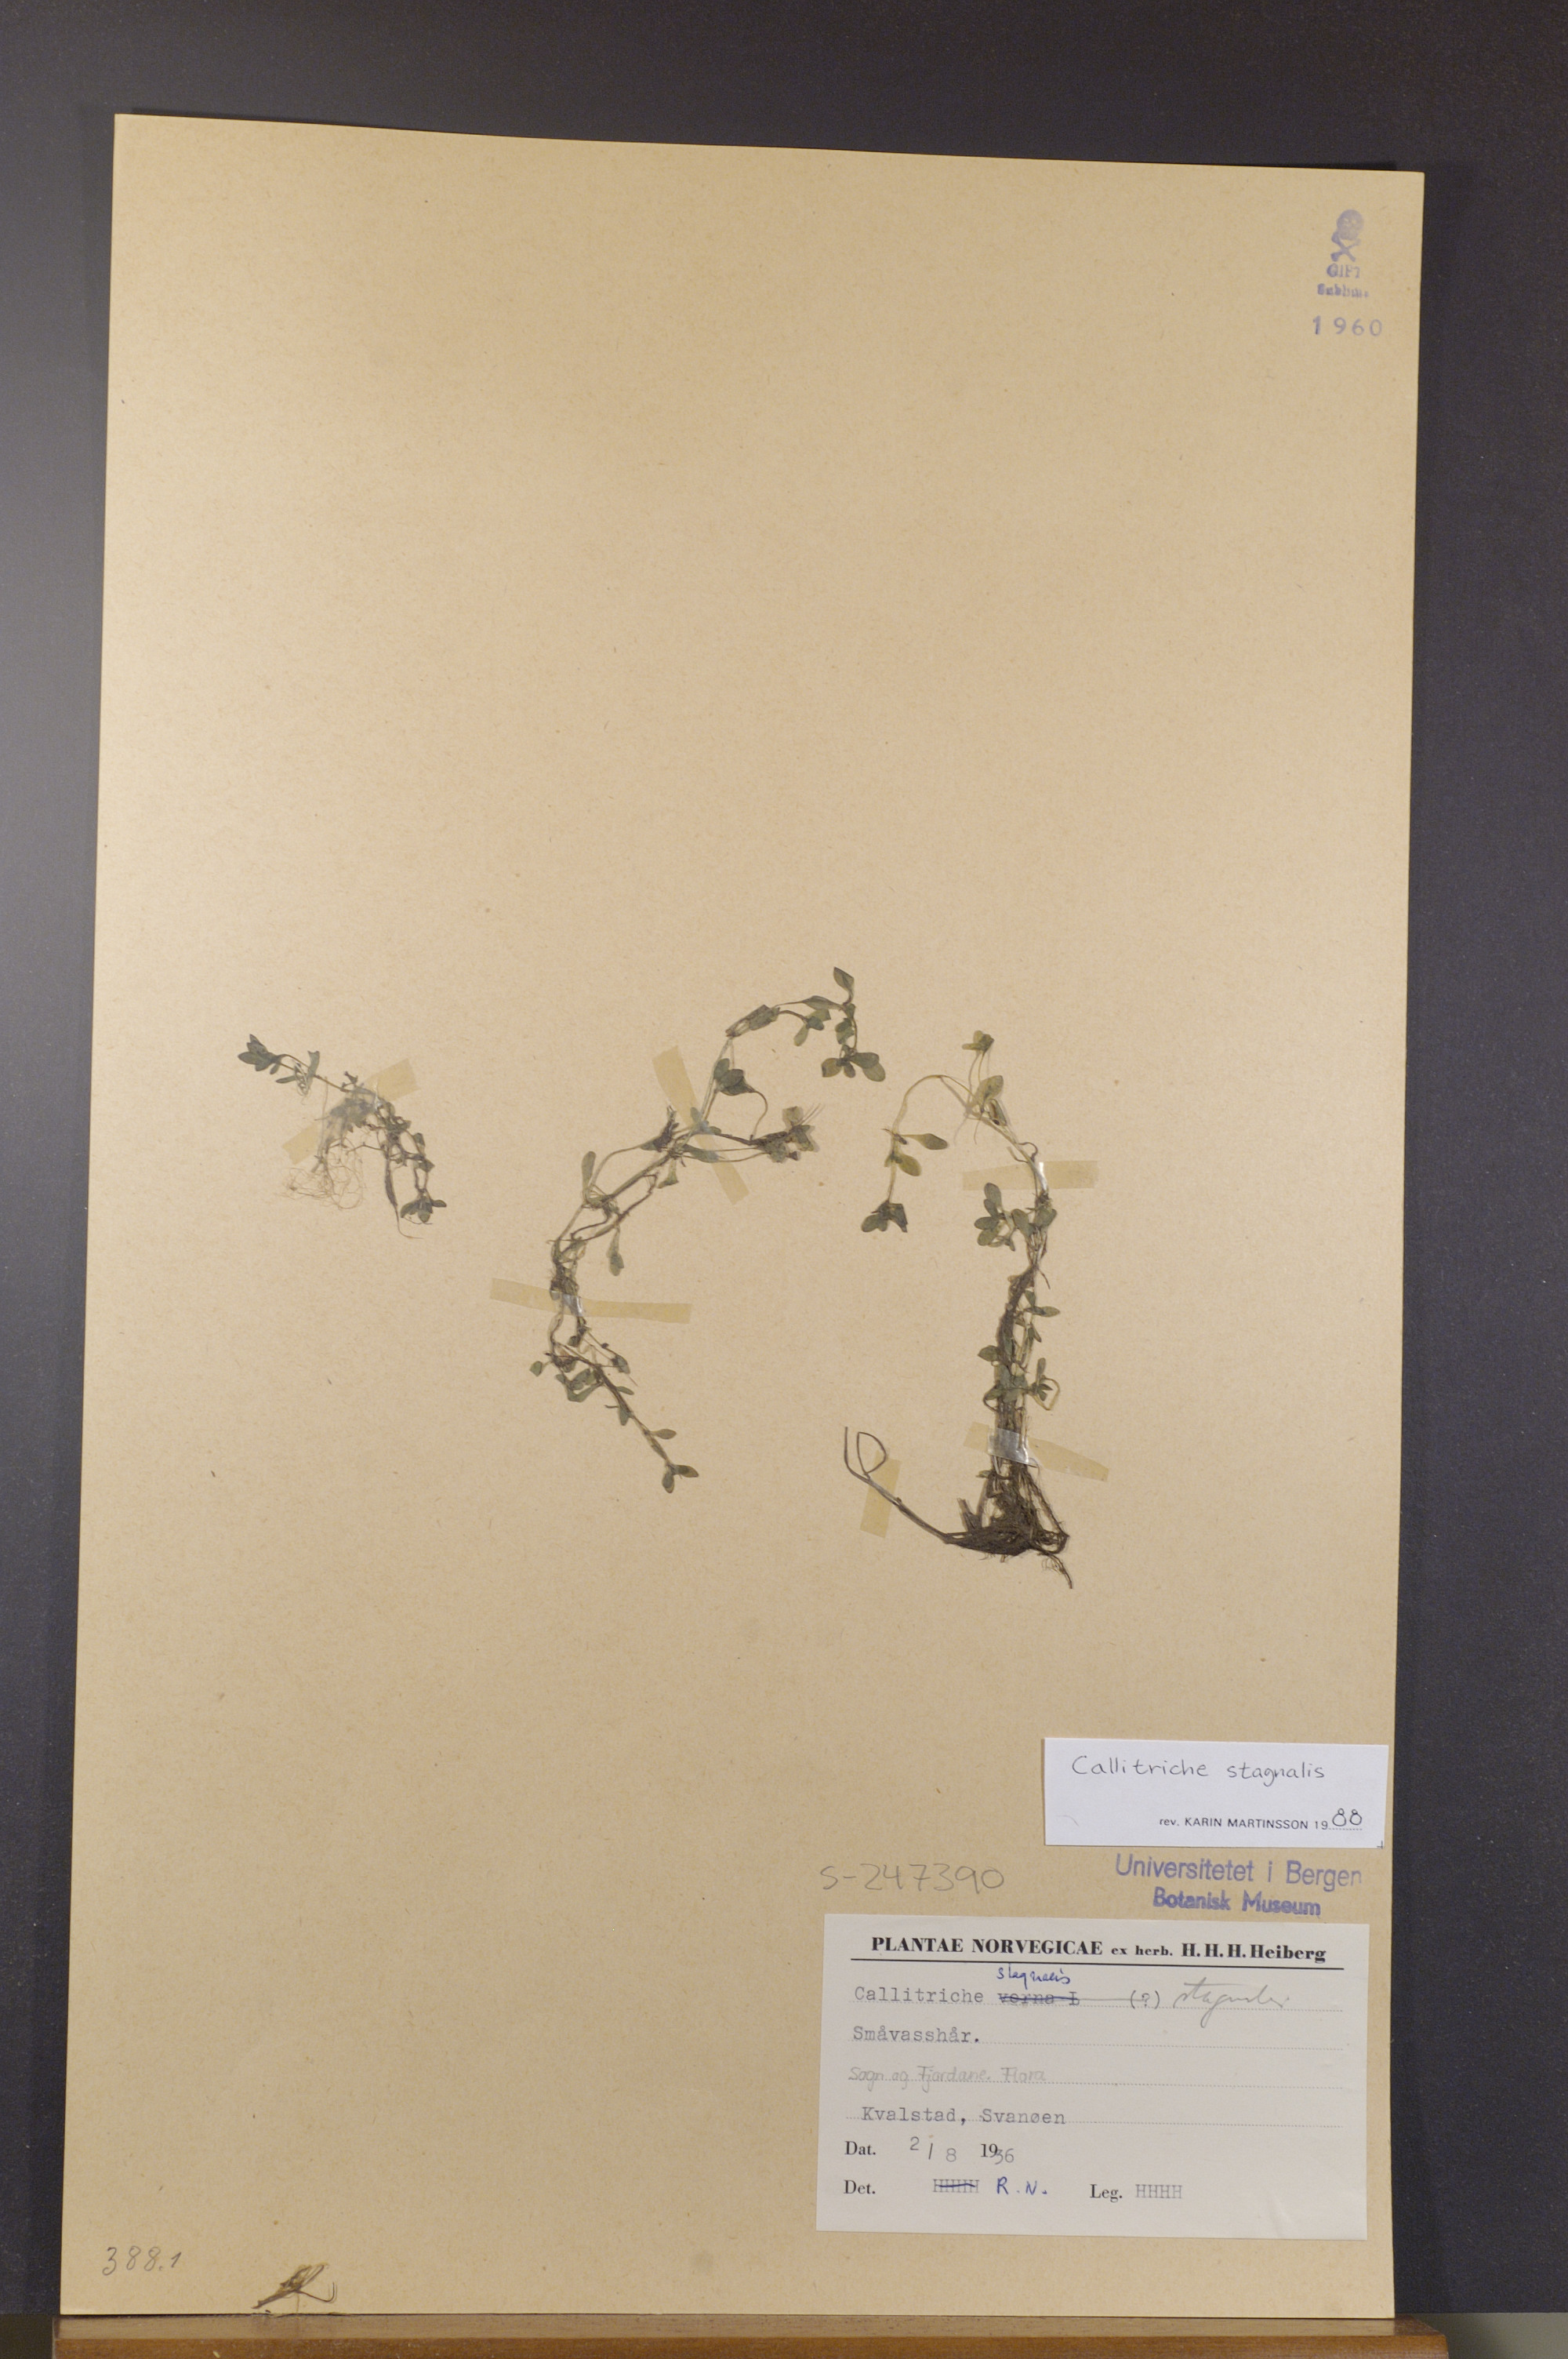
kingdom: Plantae
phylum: Tracheophyta
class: Magnoliopsida
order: Lamiales
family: Plantaginaceae
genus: Callitriche
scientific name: Callitriche stagnalis
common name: Common water-starwort
